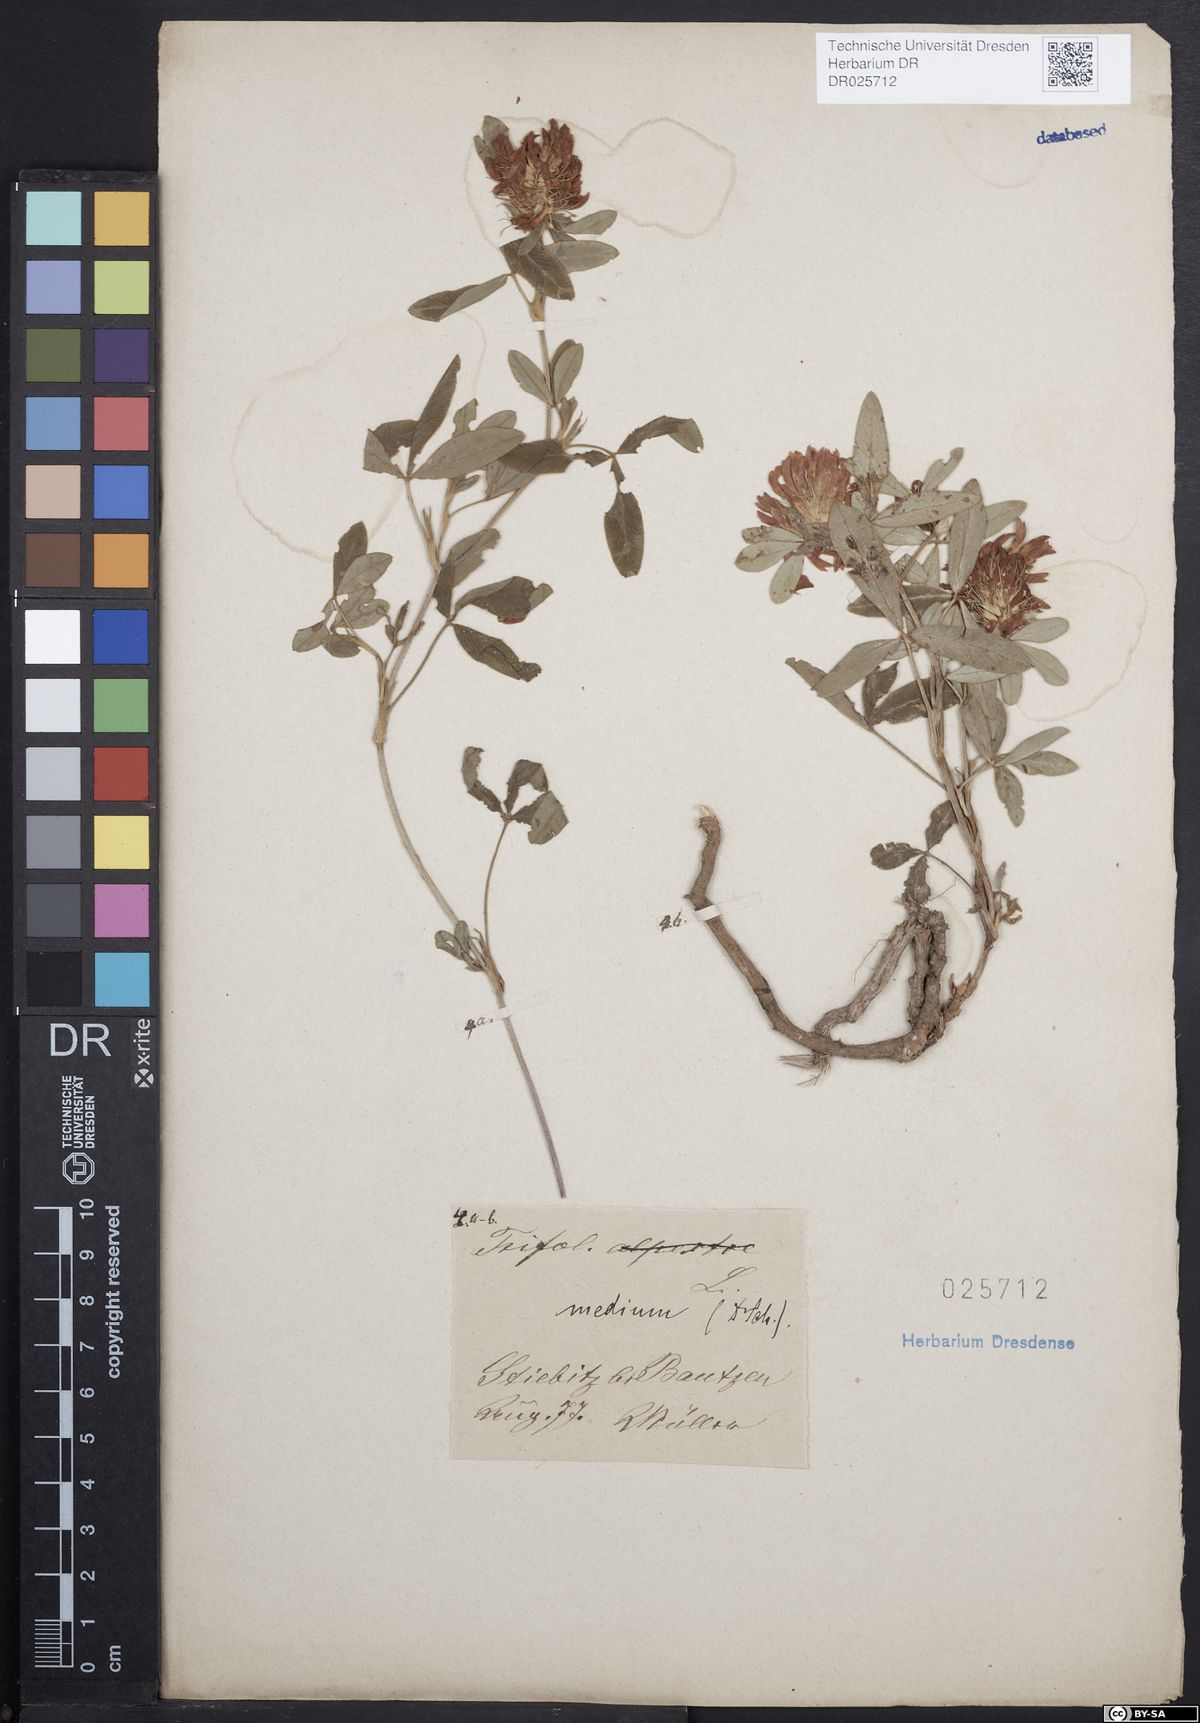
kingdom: Plantae
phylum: Tracheophyta
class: Magnoliopsida
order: Fabales
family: Fabaceae
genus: Trifolium
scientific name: Trifolium medium
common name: Zigzag clover
